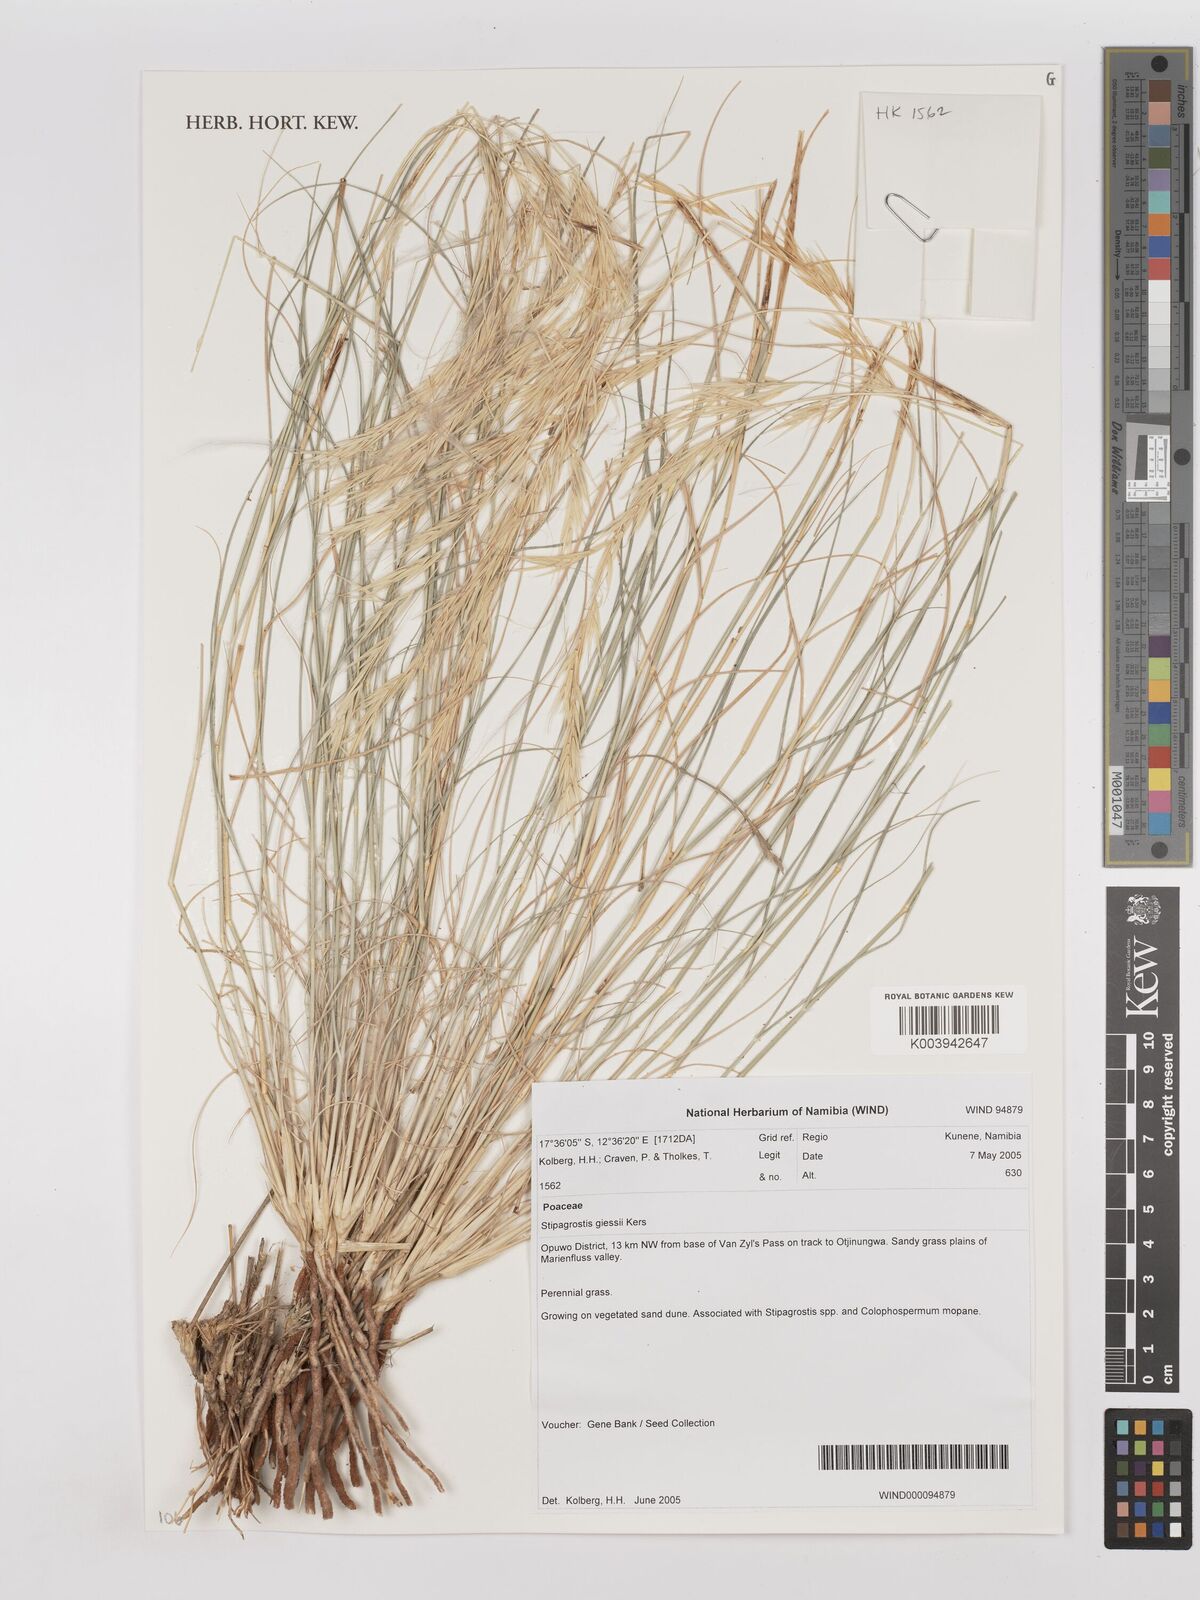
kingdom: Plantae
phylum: Tracheophyta
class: Liliopsida
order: Poales
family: Poaceae
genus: Stipagrostis
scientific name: Stipagrostis giessii
